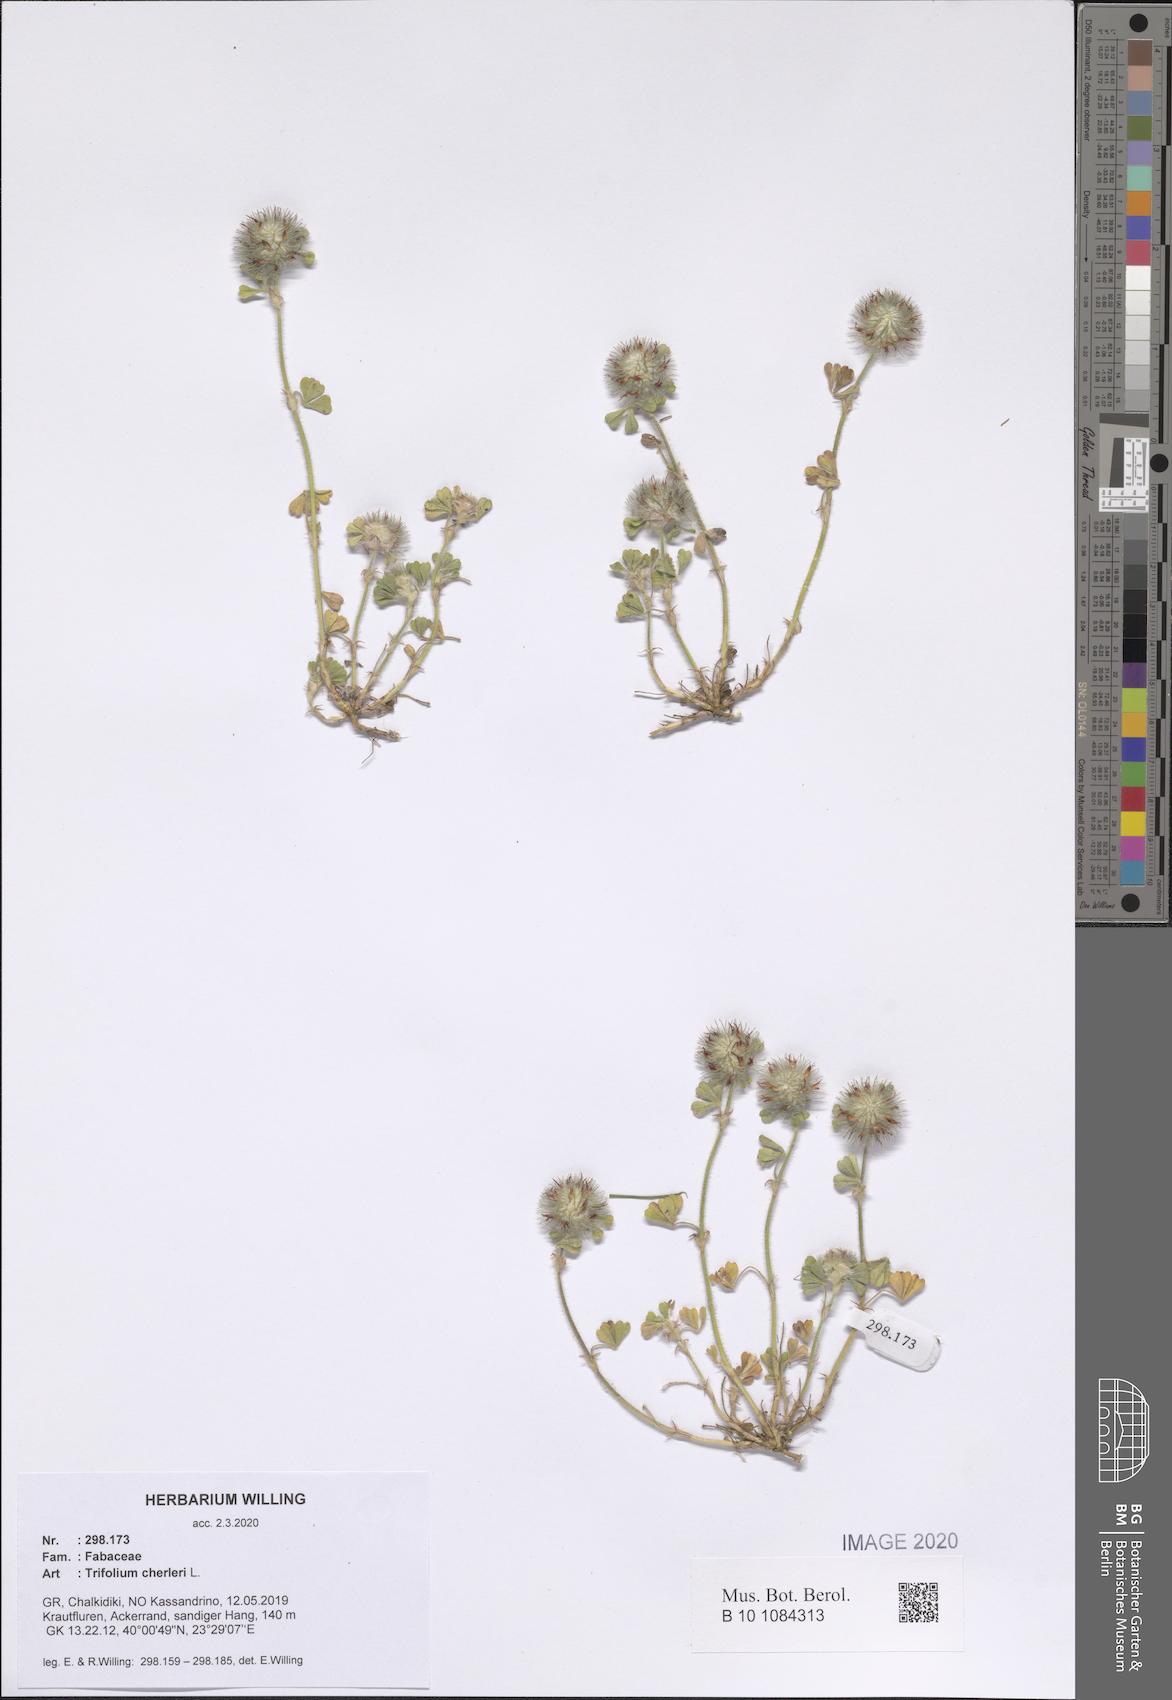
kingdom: Plantae
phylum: Tracheophyta
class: Magnoliopsida
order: Fabales
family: Fabaceae
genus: Trifolium
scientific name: Trifolium cherleri
